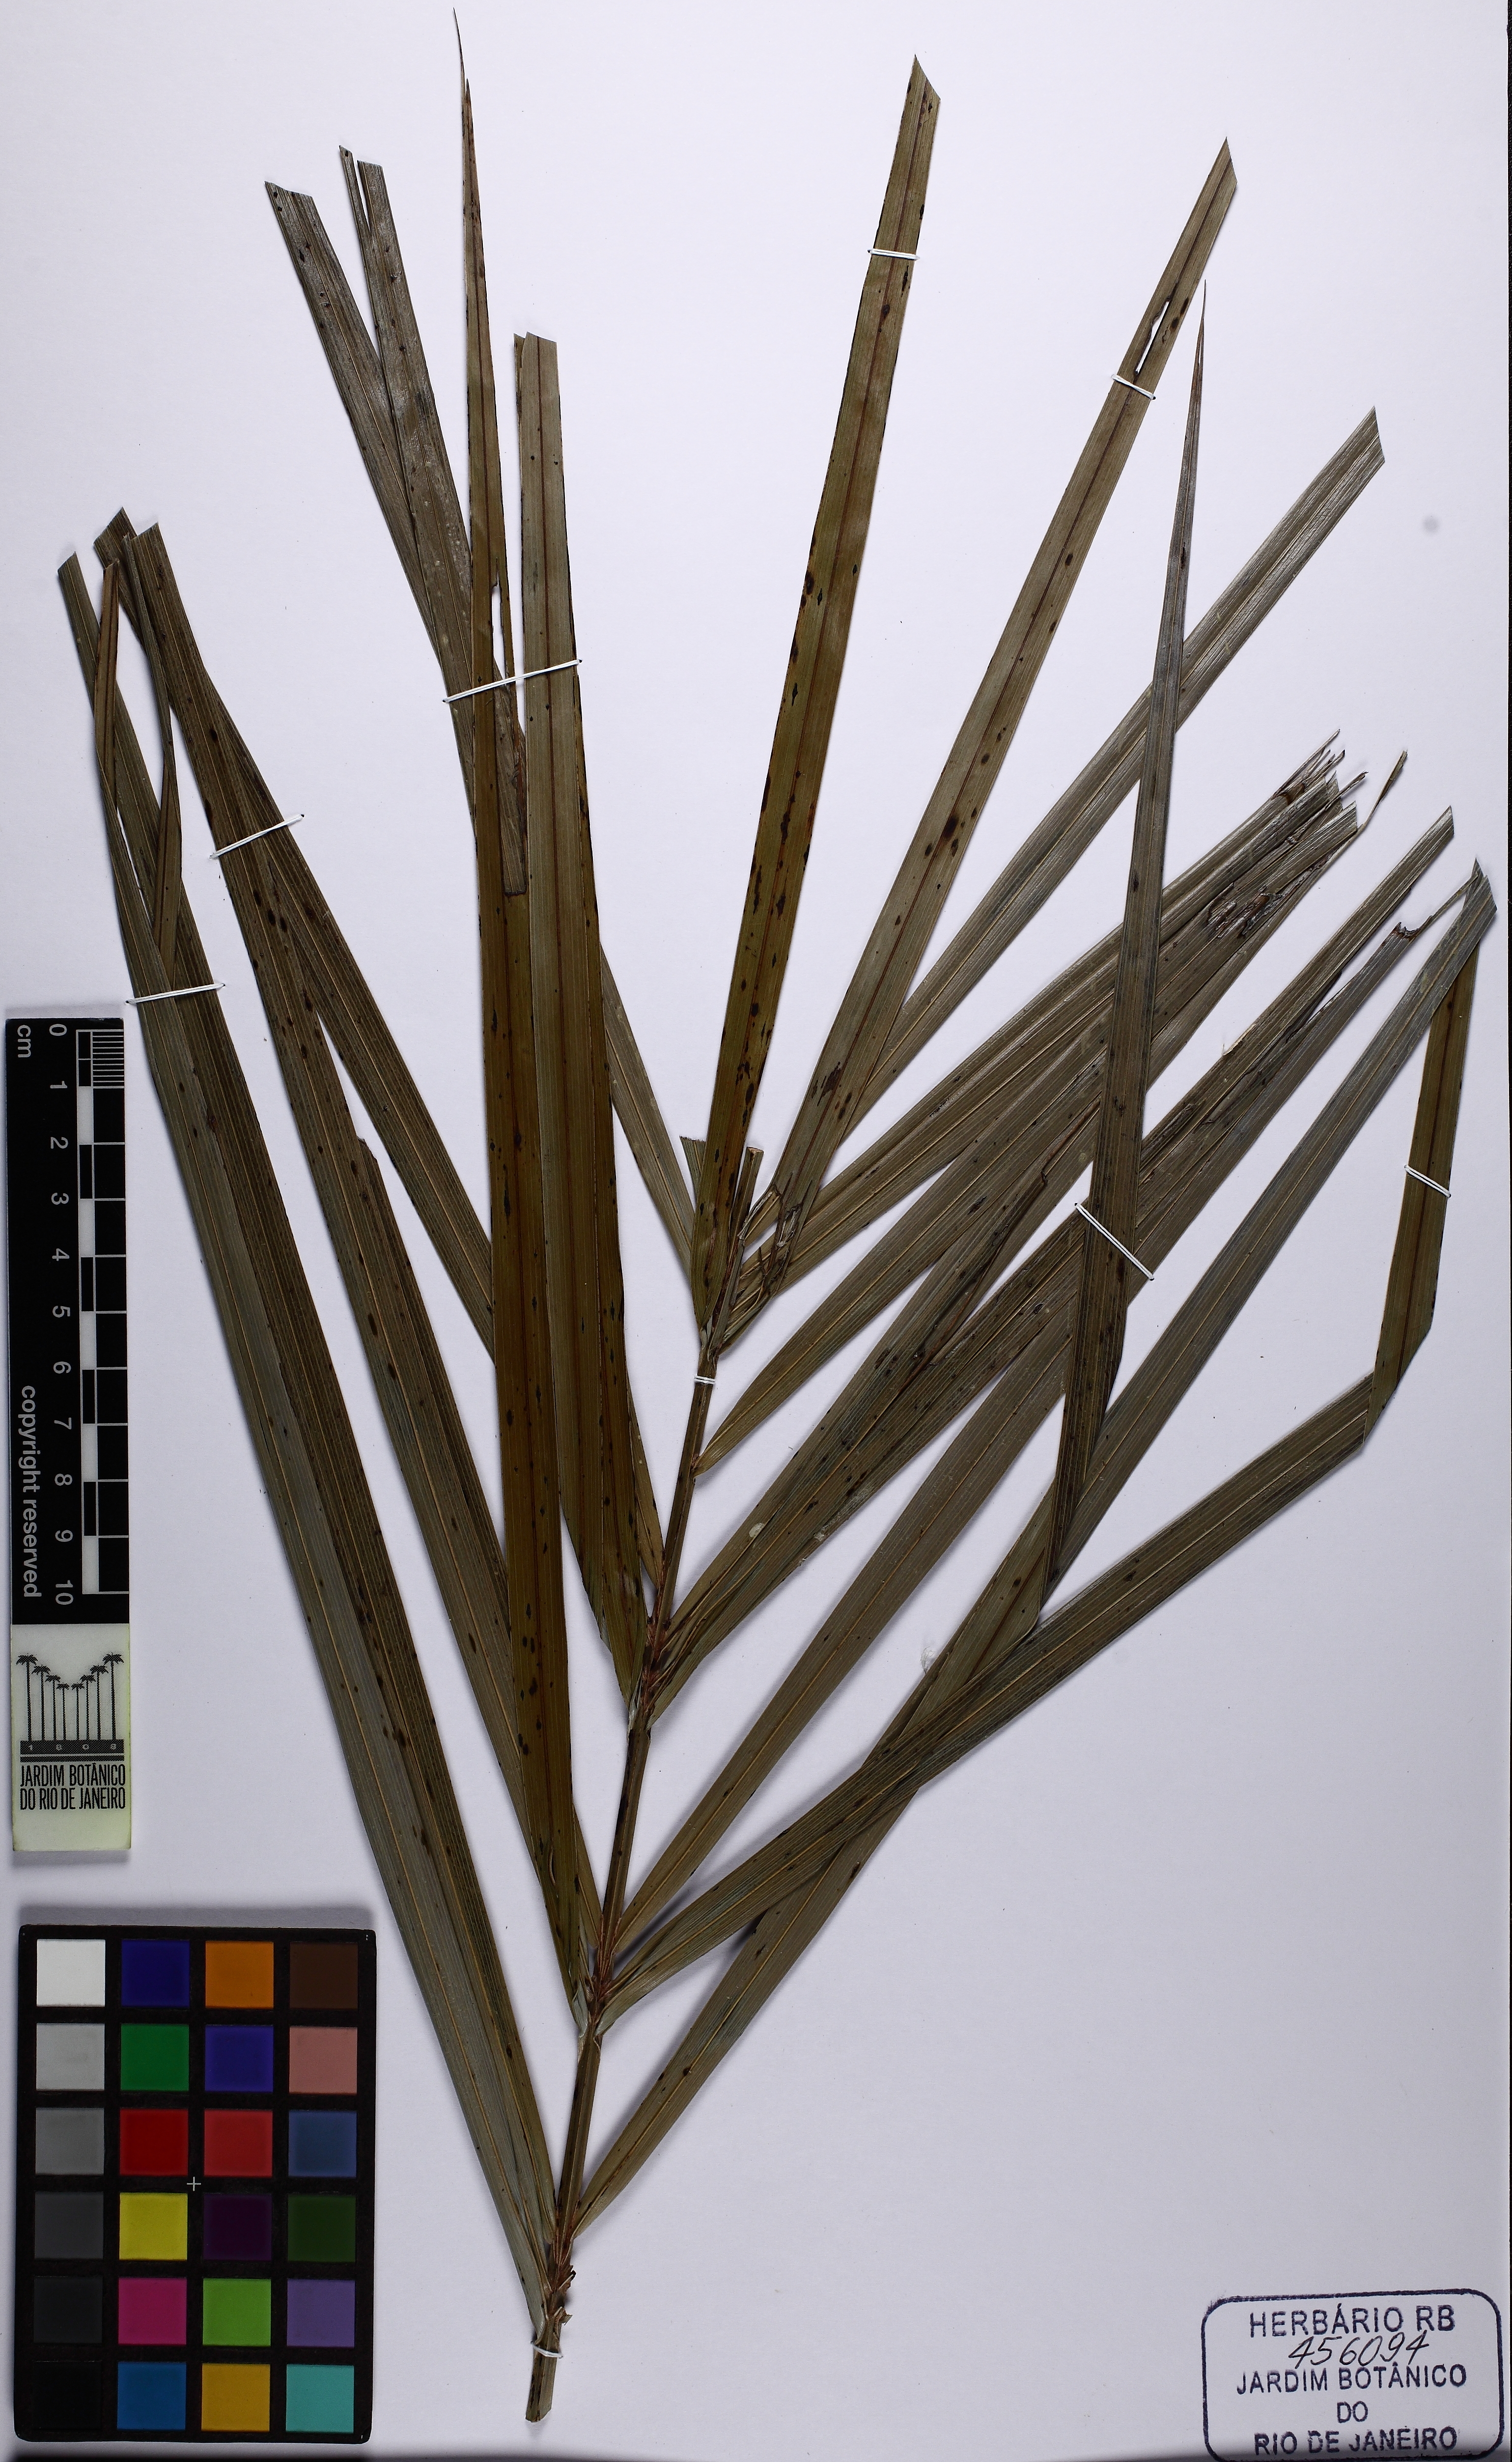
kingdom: Plantae
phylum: Tracheophyta
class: Liliopsida
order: Arecales
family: Arecaceae
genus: Allagoptera
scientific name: Allagoptera campestris
